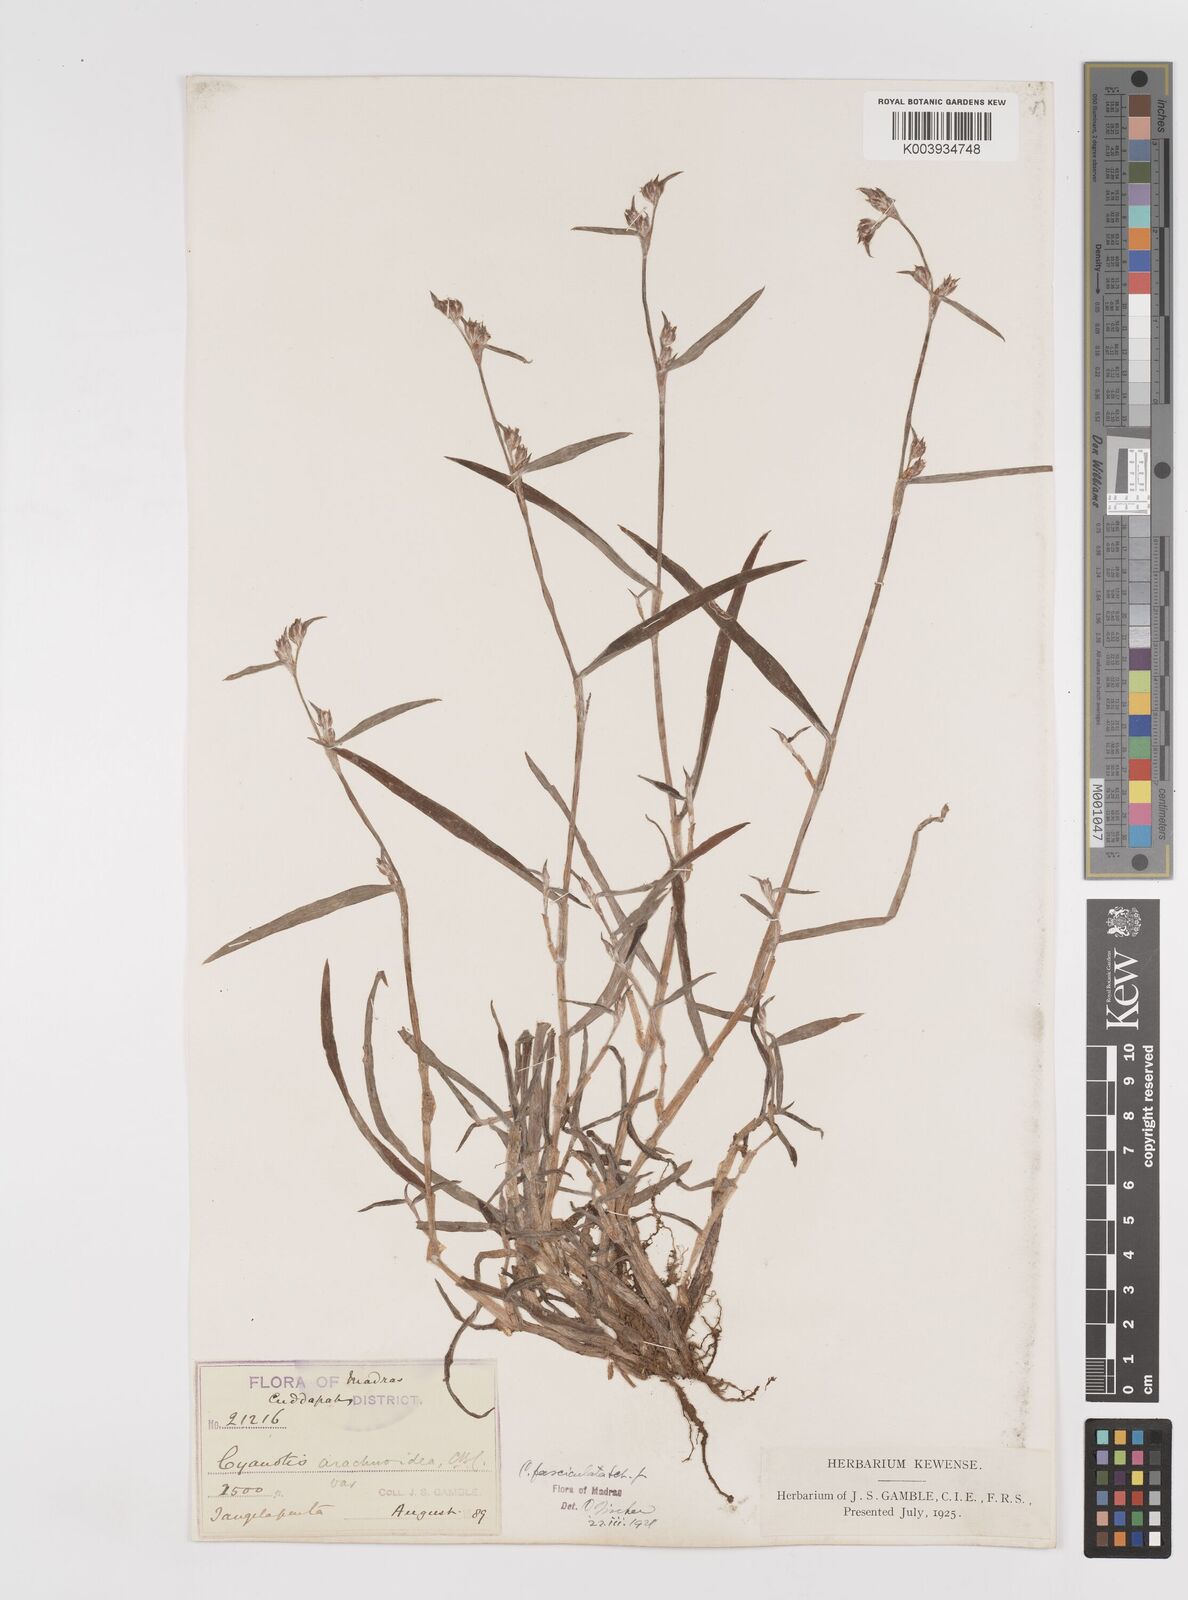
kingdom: Plantae
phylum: Tracheophyta
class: Liliopsida
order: Commelinales
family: Commelinaceae
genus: Cyanotis
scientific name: Cyanotis fasciculata
